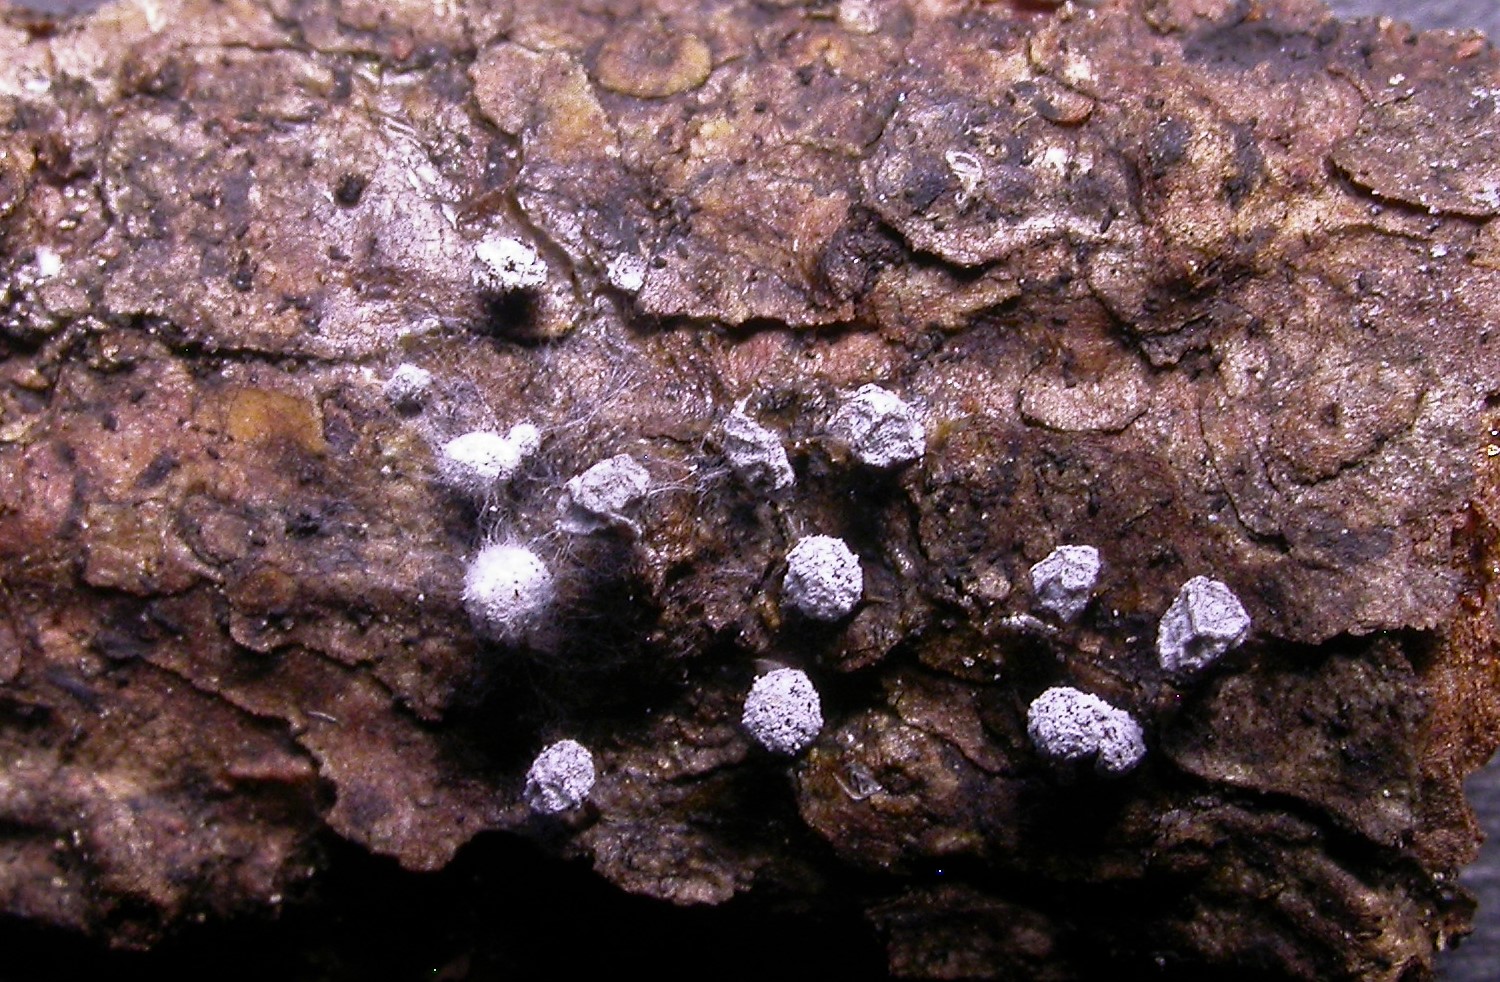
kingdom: Protozoa
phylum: Mycetozoa
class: Myxomycetes
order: Physarales
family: Didymiaceae
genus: Didymium
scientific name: Didymium melanospermum
